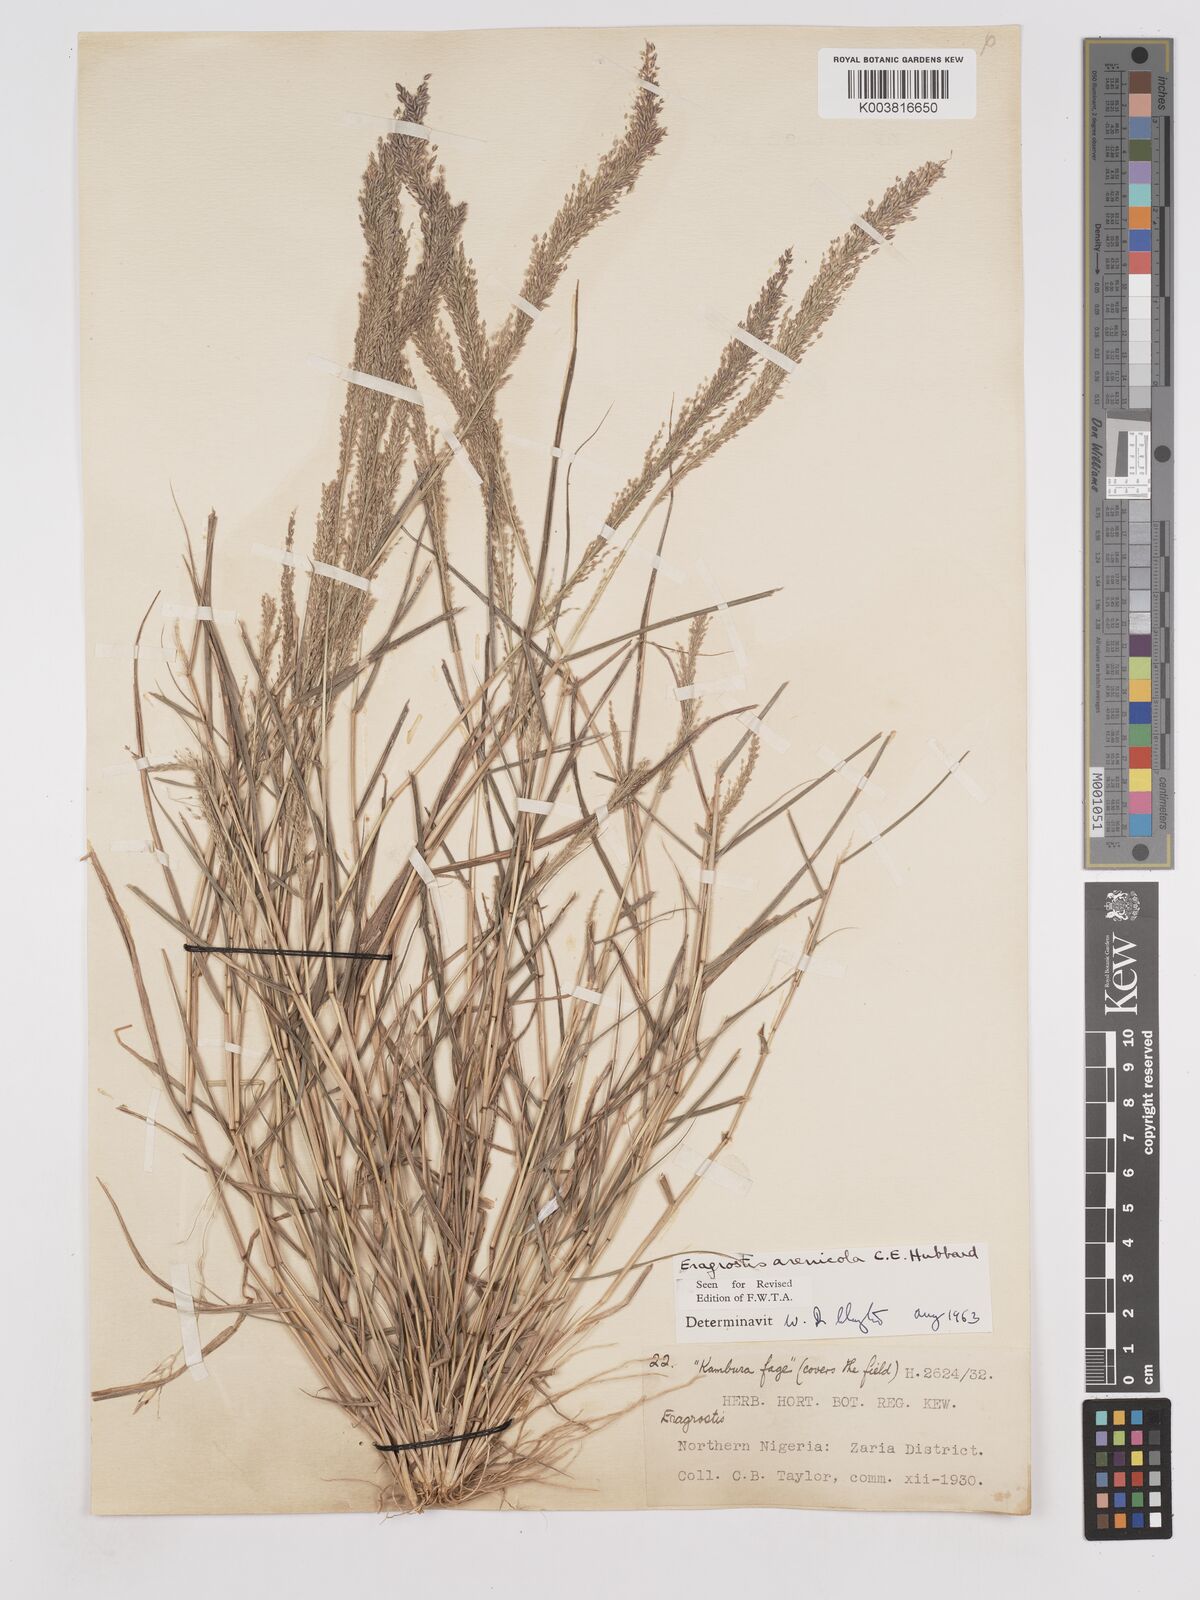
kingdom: Plantae
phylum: Tracheophyta
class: Liliopsida
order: Poales
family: Poaceae
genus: Eragrostis
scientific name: Eragrostis arenicola
